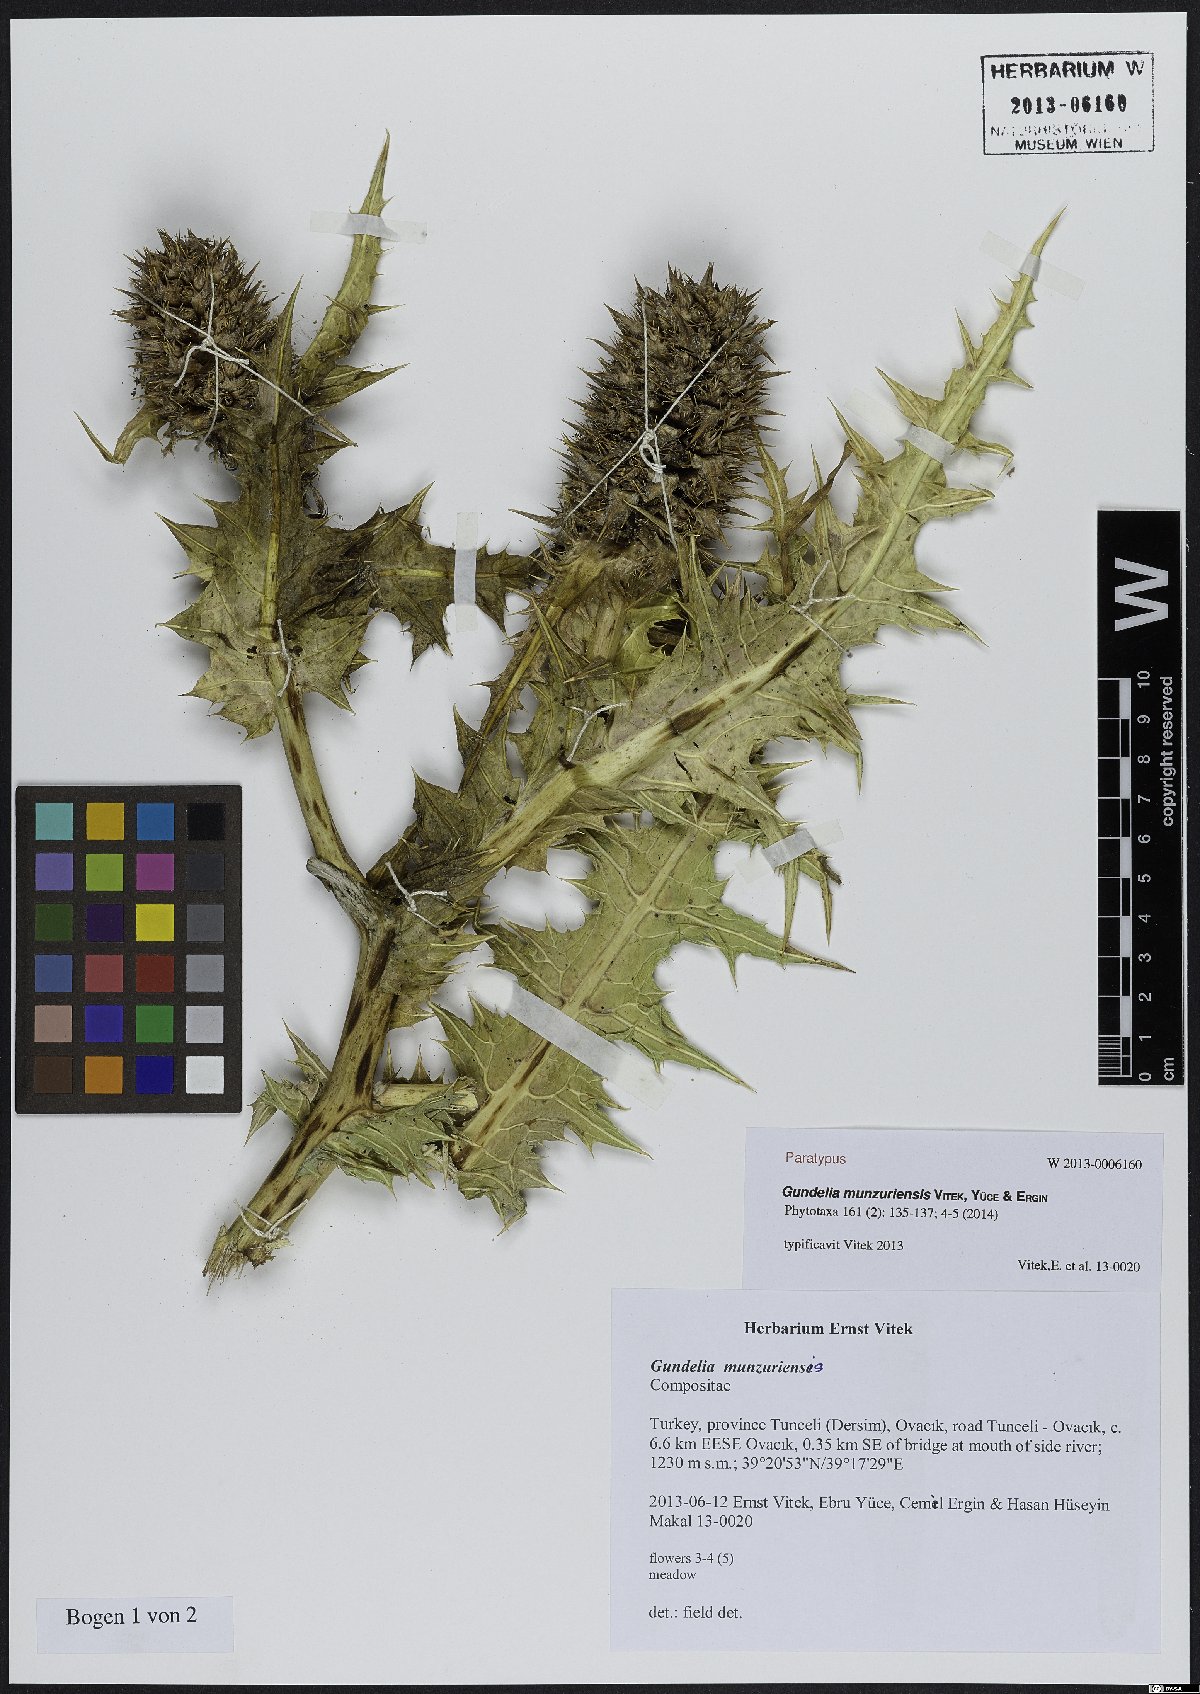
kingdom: Plantae
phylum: Tracheophyta
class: Magnoliopsida
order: Asterales
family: Asteraceae
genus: Gundelia
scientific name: Gundelia munzuriensis
